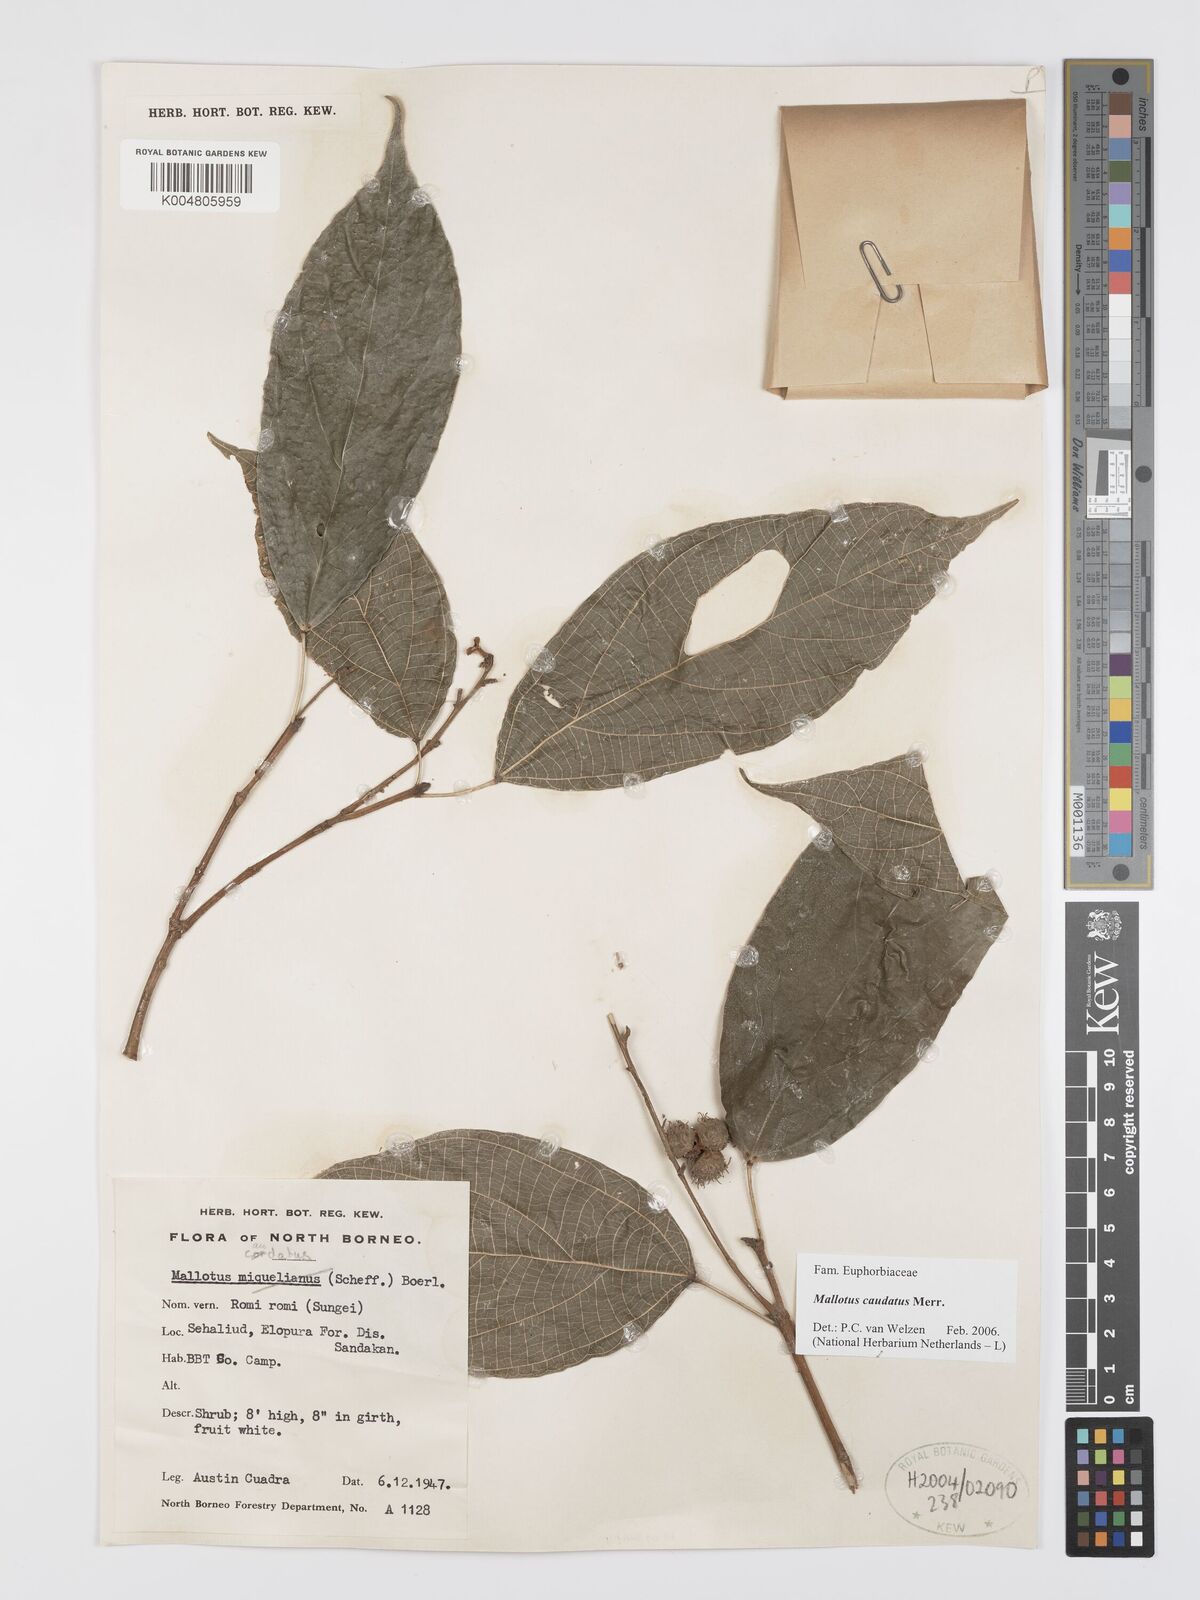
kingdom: Plantae
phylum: Tracheophyta
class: Magnoliopsida
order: Malpighiales
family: Euphorbiaceae
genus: Mallotus
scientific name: Mallotus caudatus
